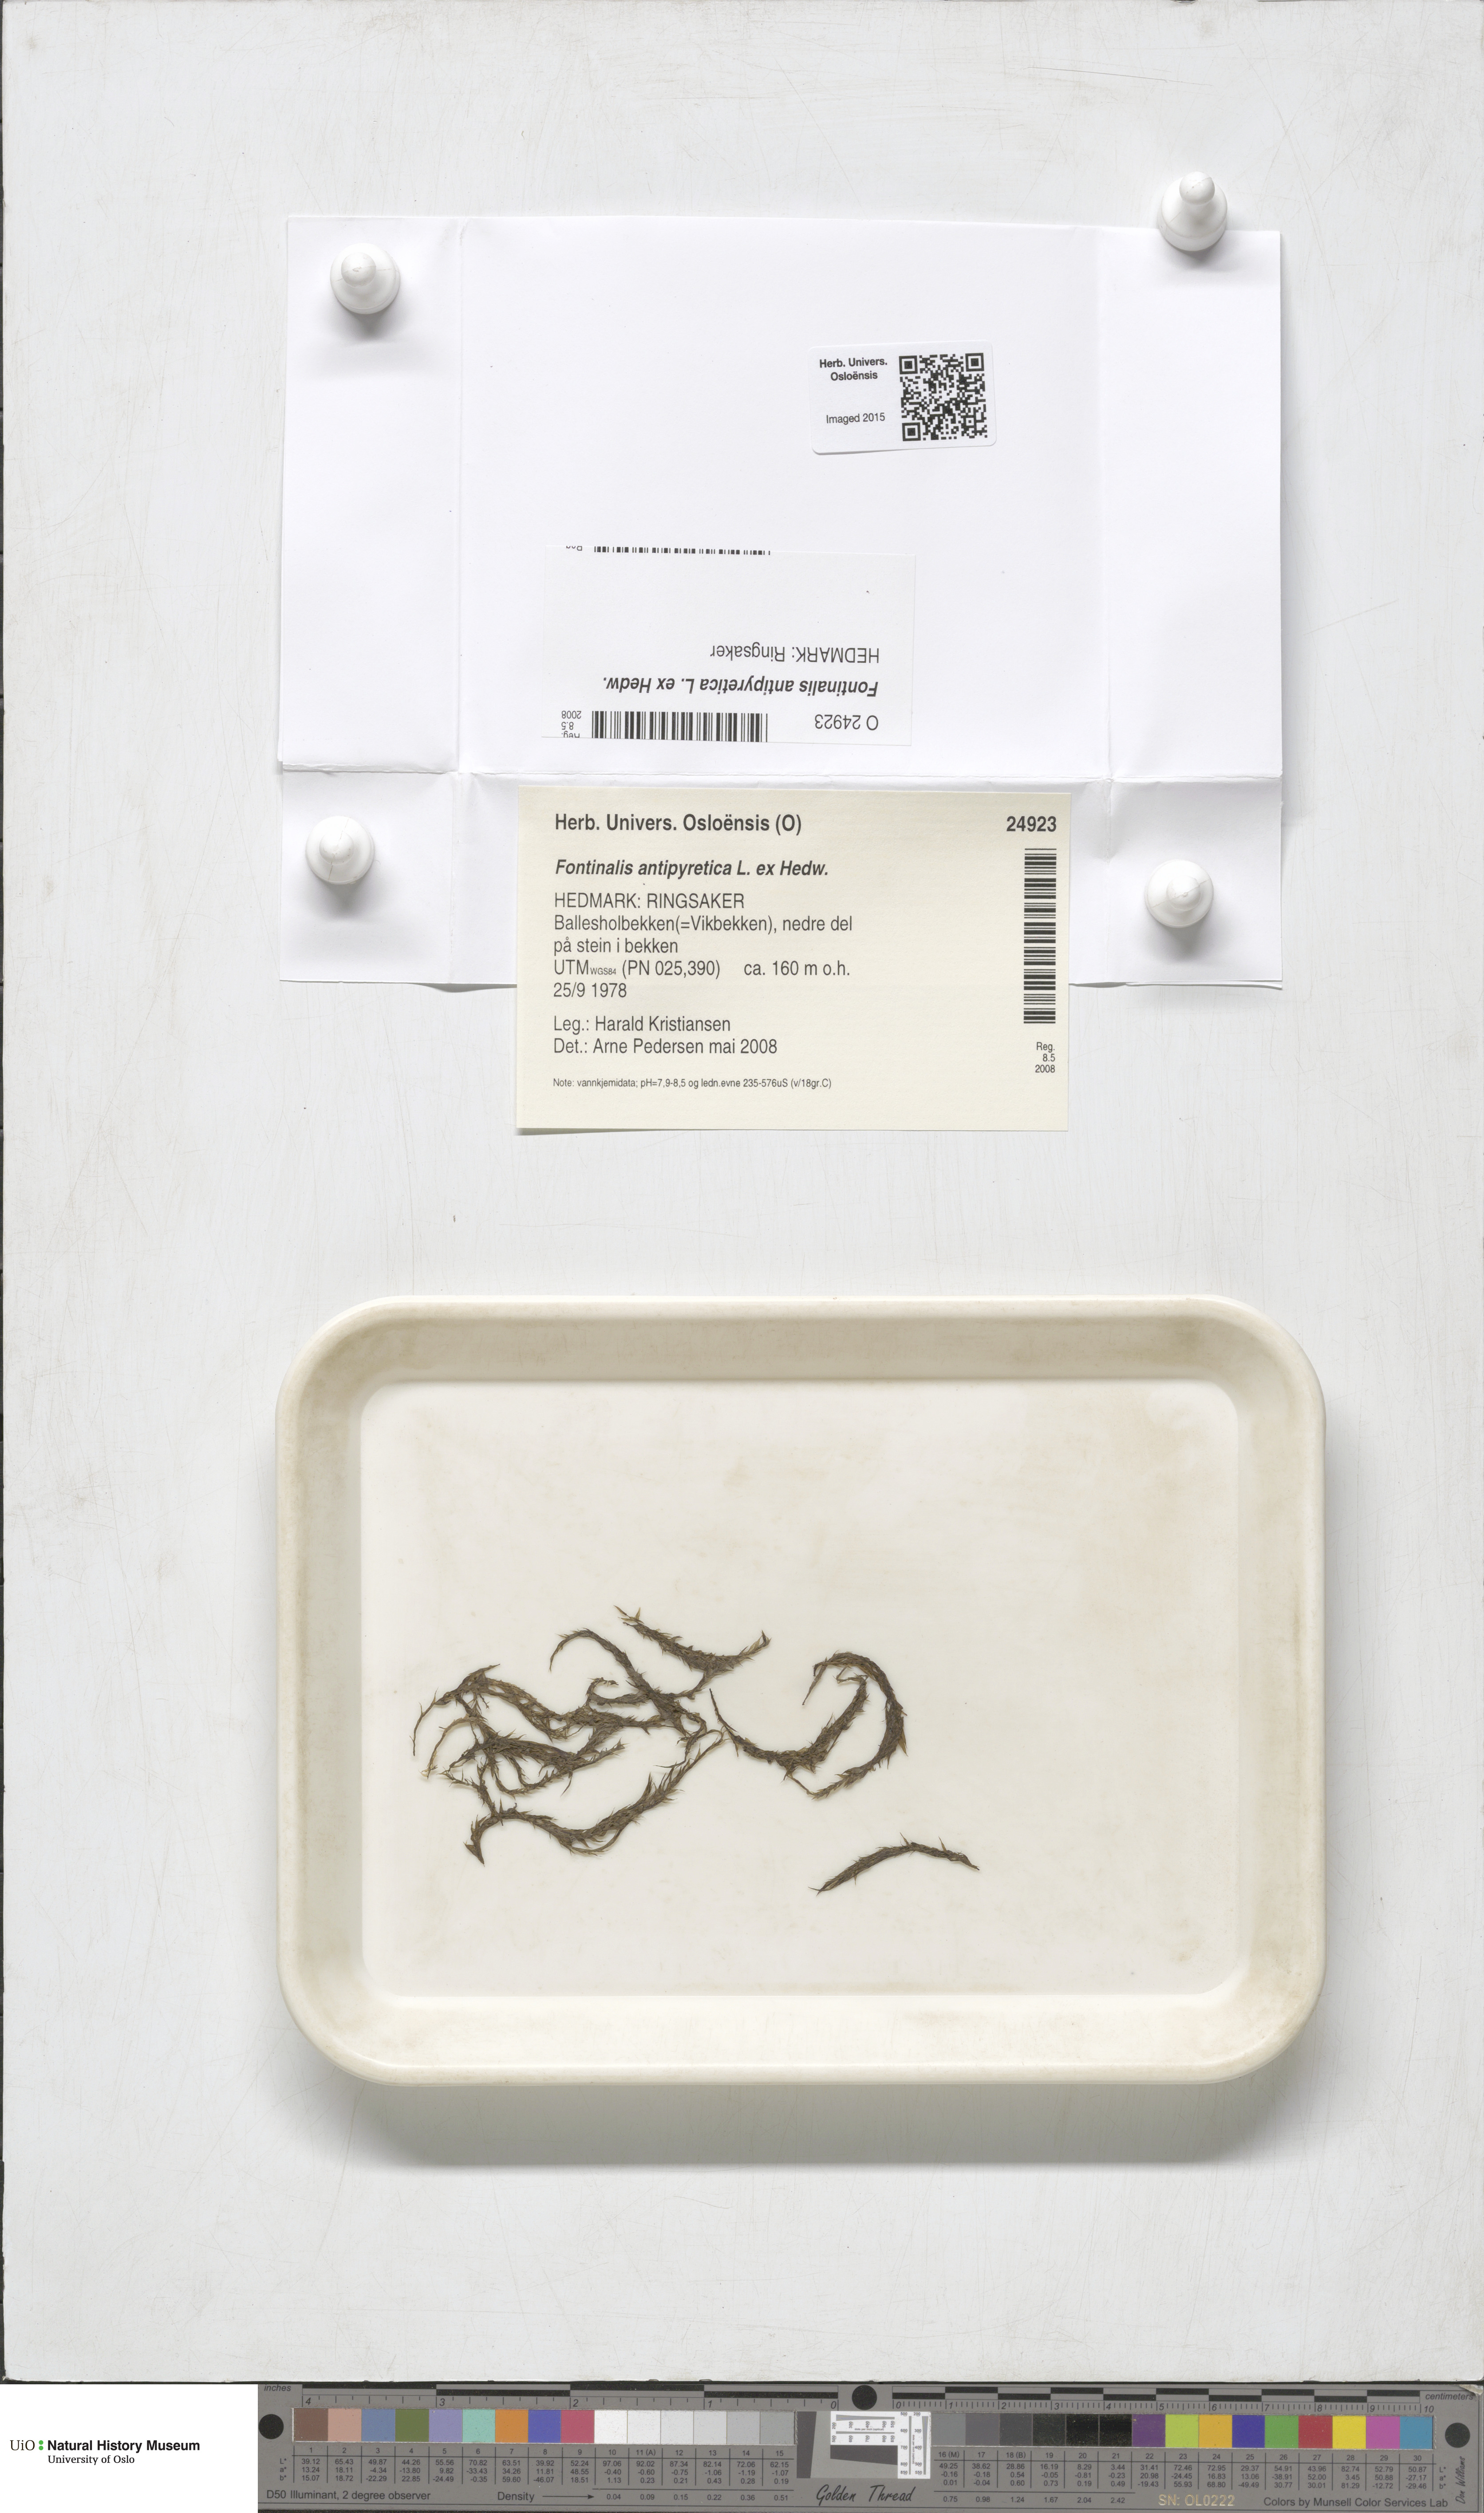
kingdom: Plantae
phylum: Bryophyta
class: Bryopsida
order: Hypnales
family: Fontinalaceae
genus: Fontinalis
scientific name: Fontinalis antipyretica
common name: Greater water-moss
